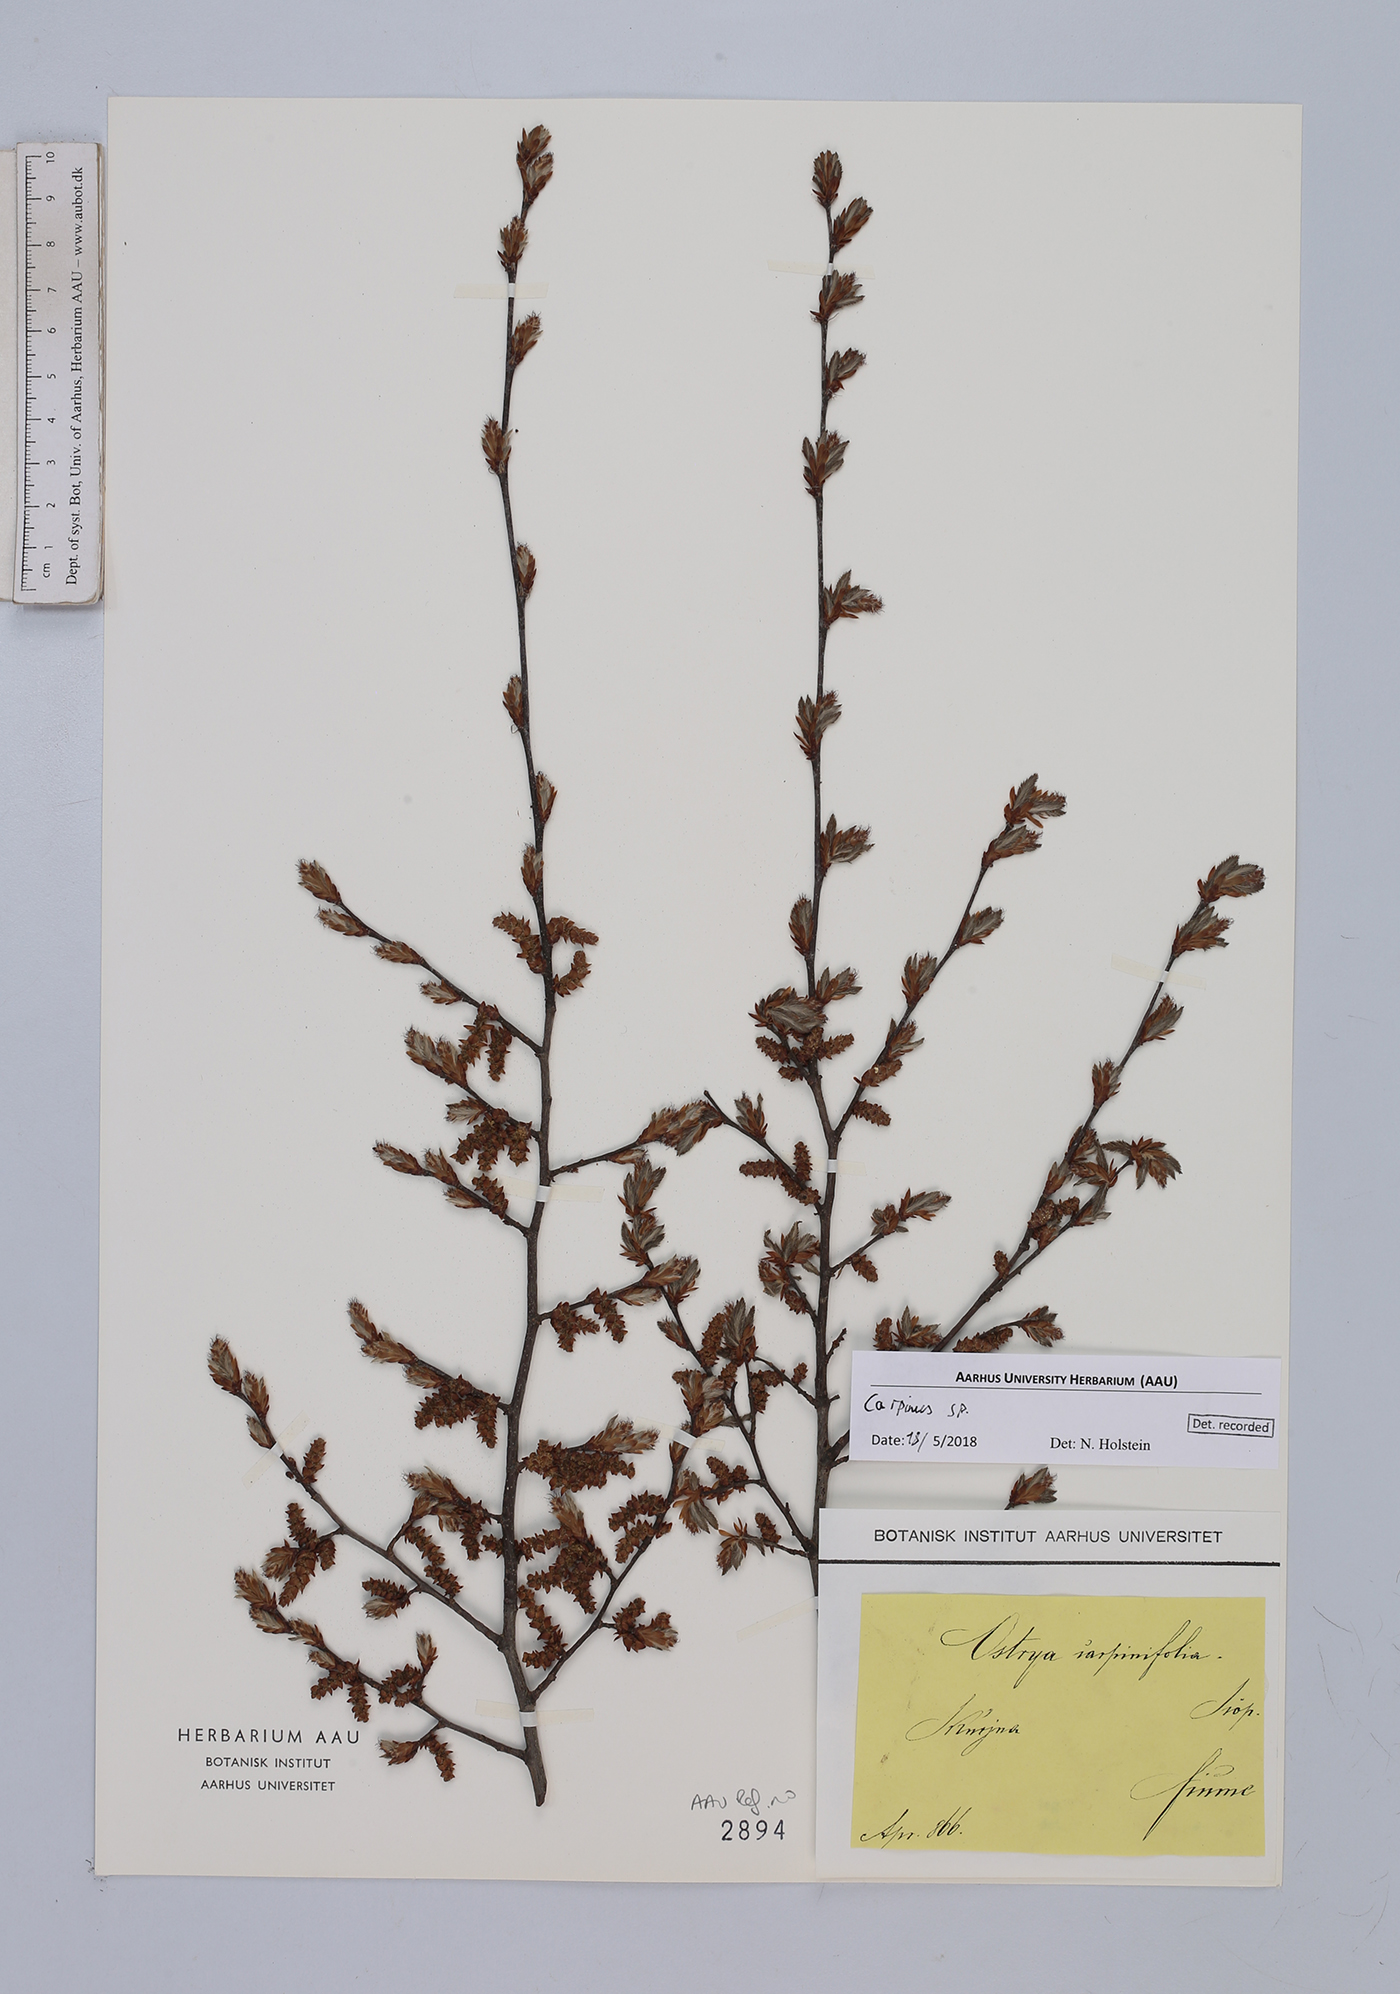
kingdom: Plantae
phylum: Tracheophyta
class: Magnoliopsida
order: Fagales
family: Betulaceae
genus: Carpinus
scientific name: Carpinus
